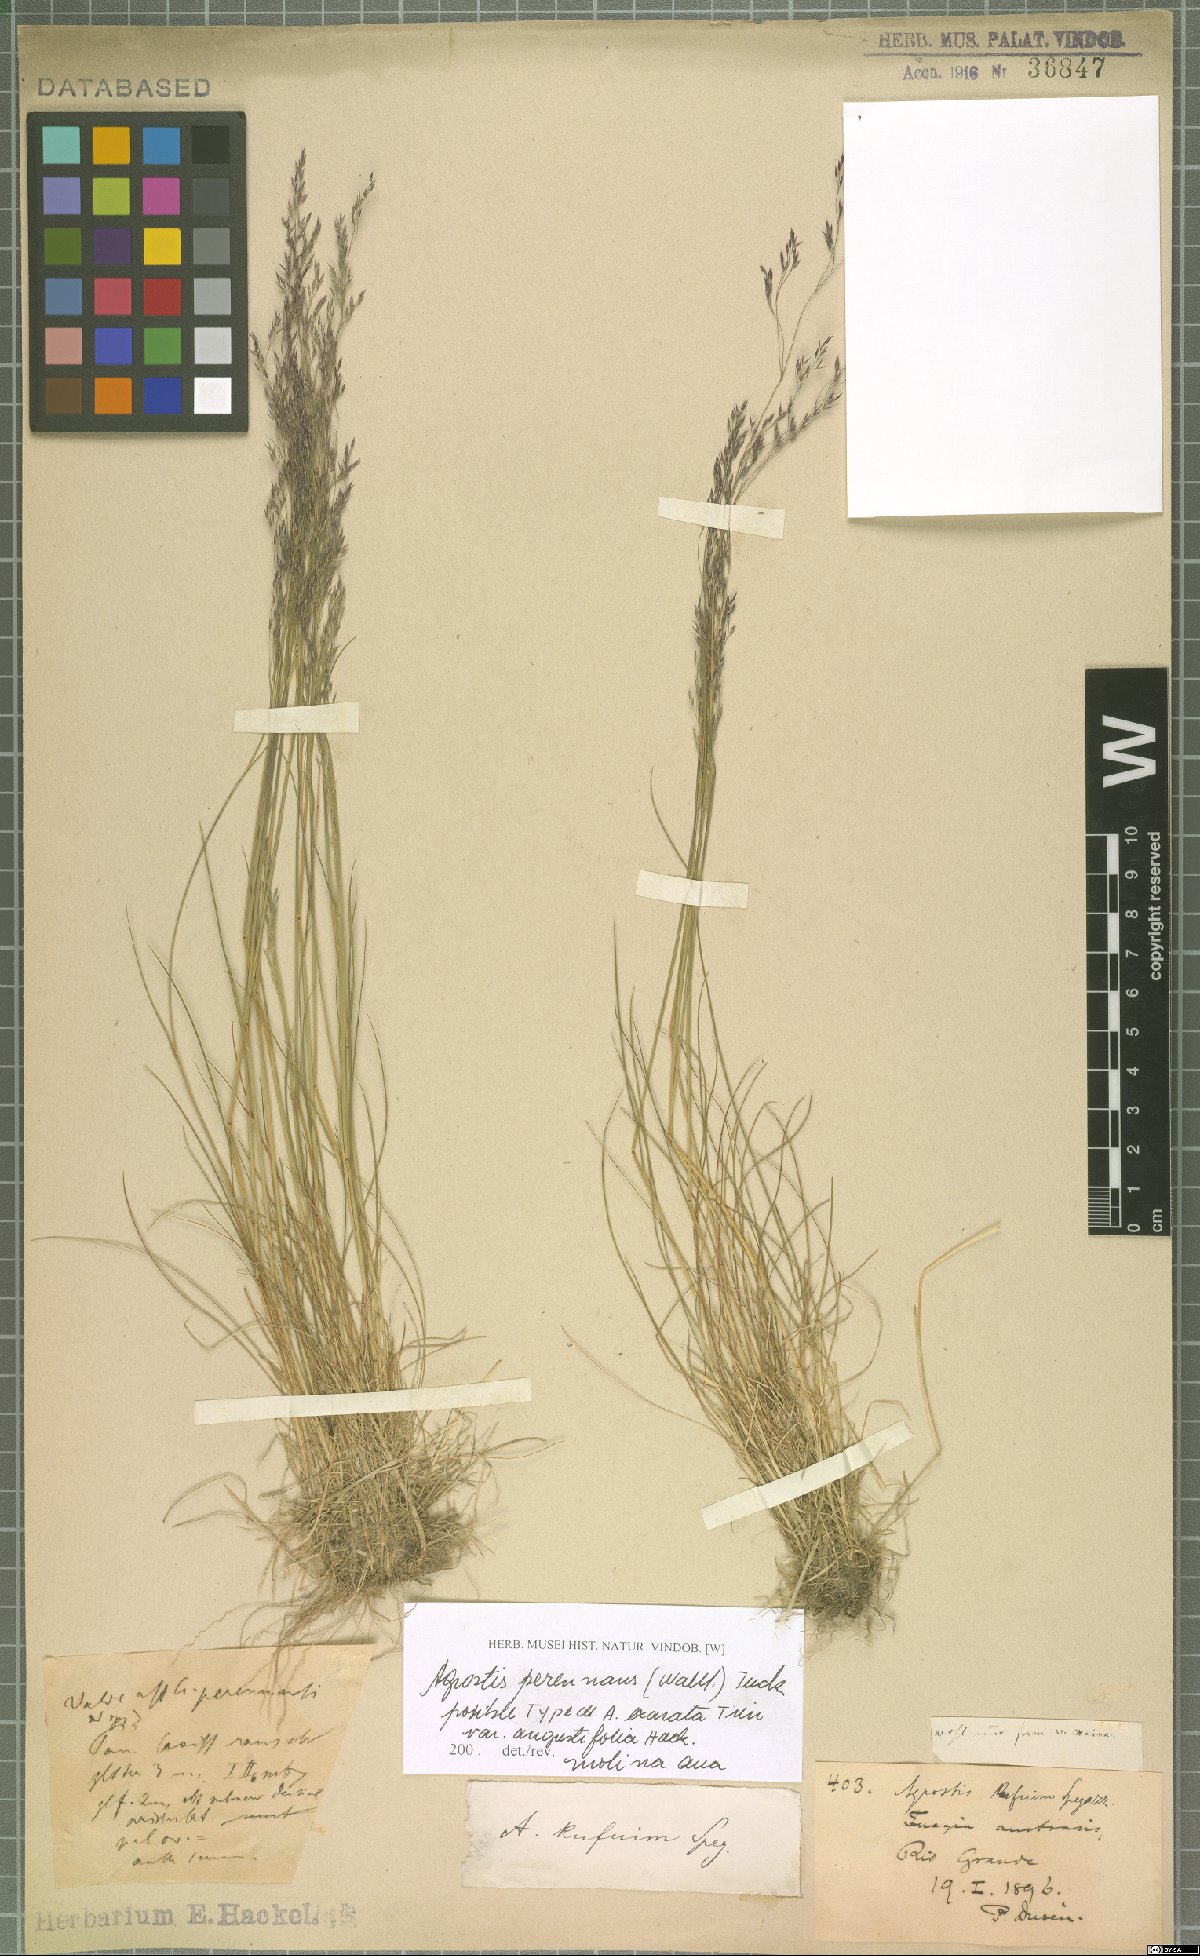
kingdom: Plantae
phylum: Tracheophyta
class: Liliopsida
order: Poales
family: Poaceae
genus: Agrostis
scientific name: Agrostis perennans
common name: Autumn bent
